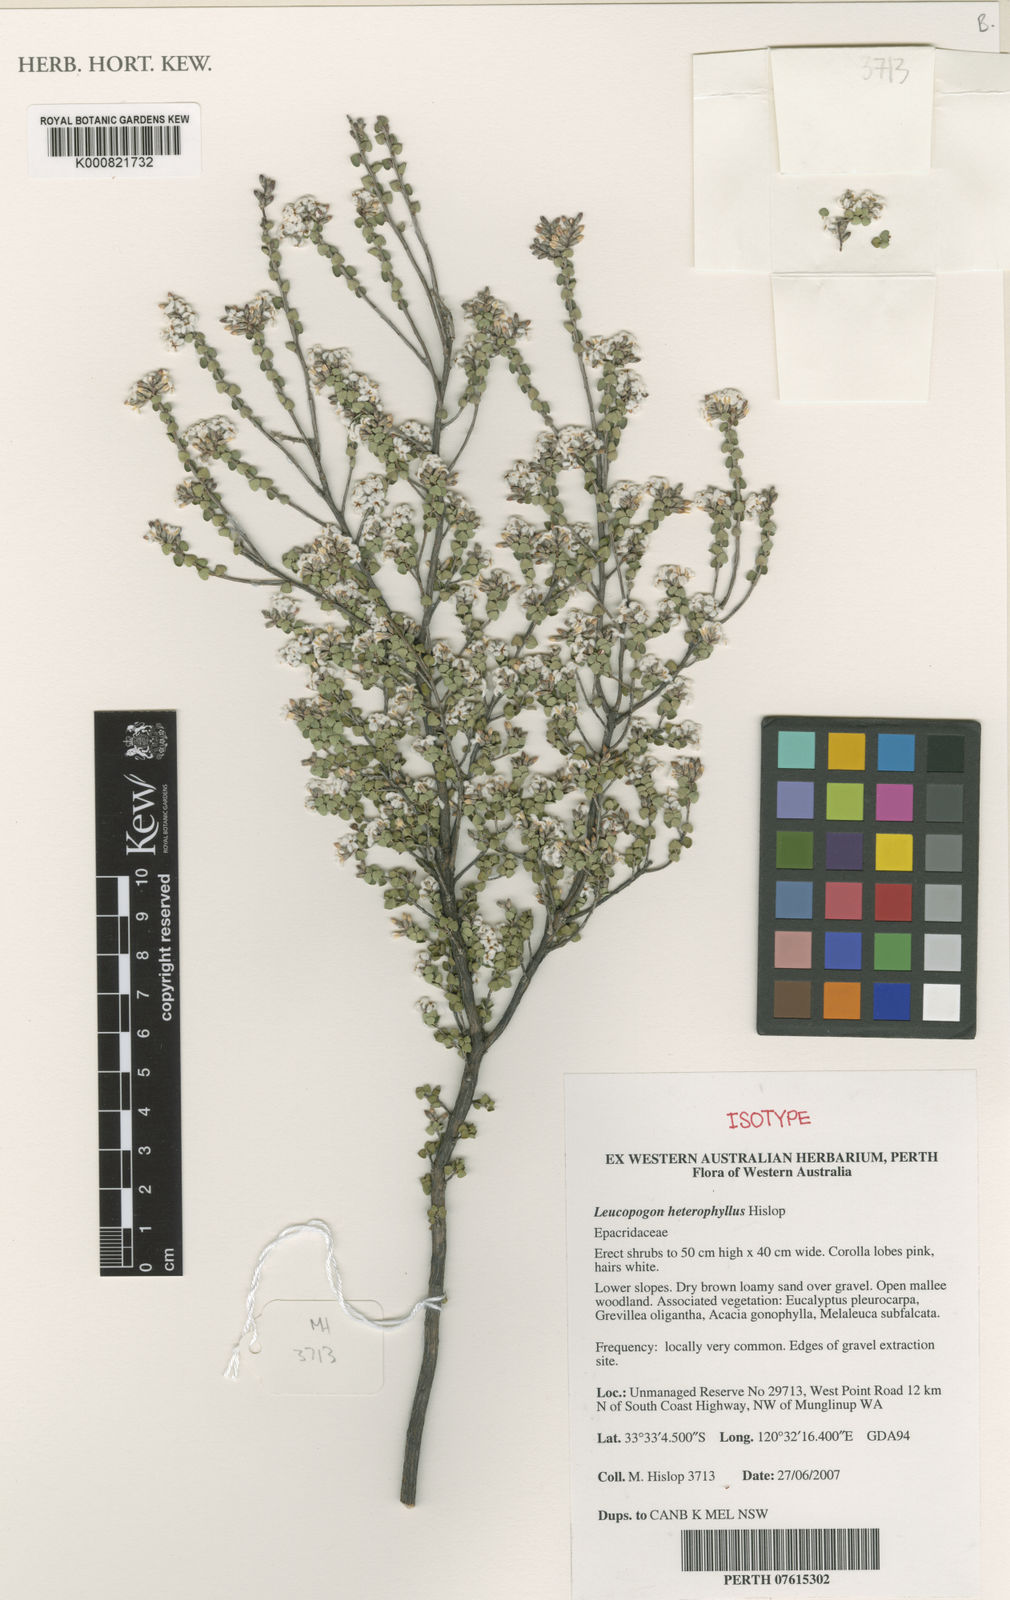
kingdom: Plantae
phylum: Tracheophyta
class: Magnoliopsida
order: Ericales
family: Ericaceae
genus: Leucopogon
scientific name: Leucopogon diversifolius
